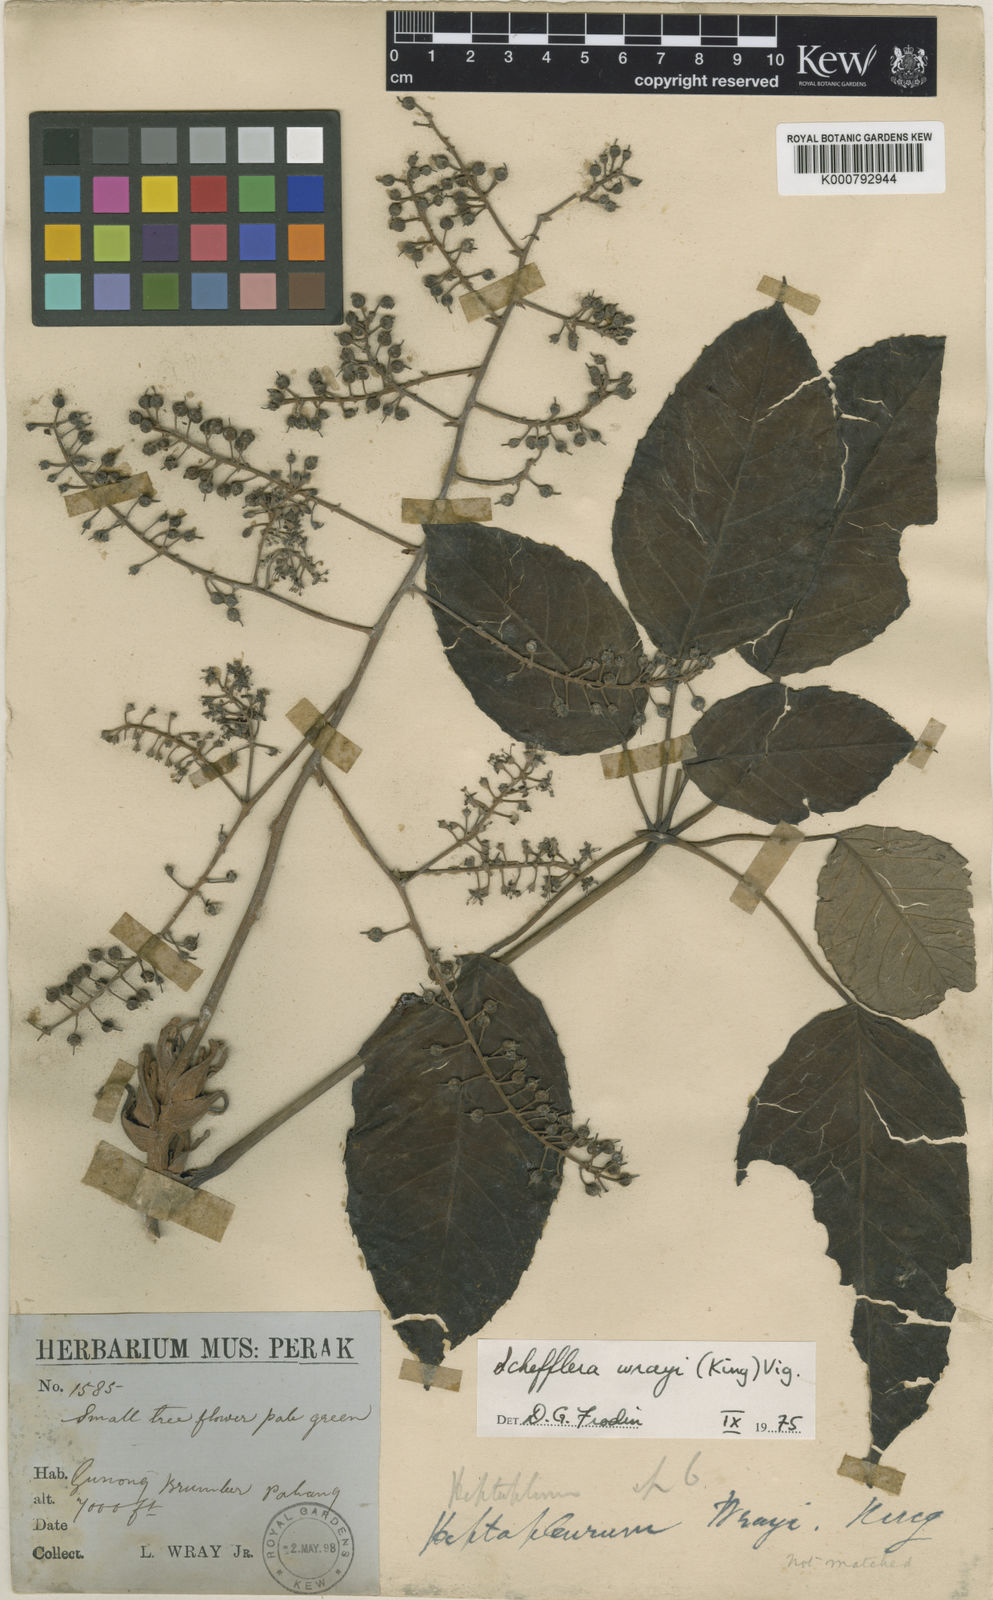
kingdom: Plantae
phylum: Tracheophyta
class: Magnoliopsida
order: Apiales
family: Araliaceae
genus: Heptapleurum
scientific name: Heptapleurum wrayi
